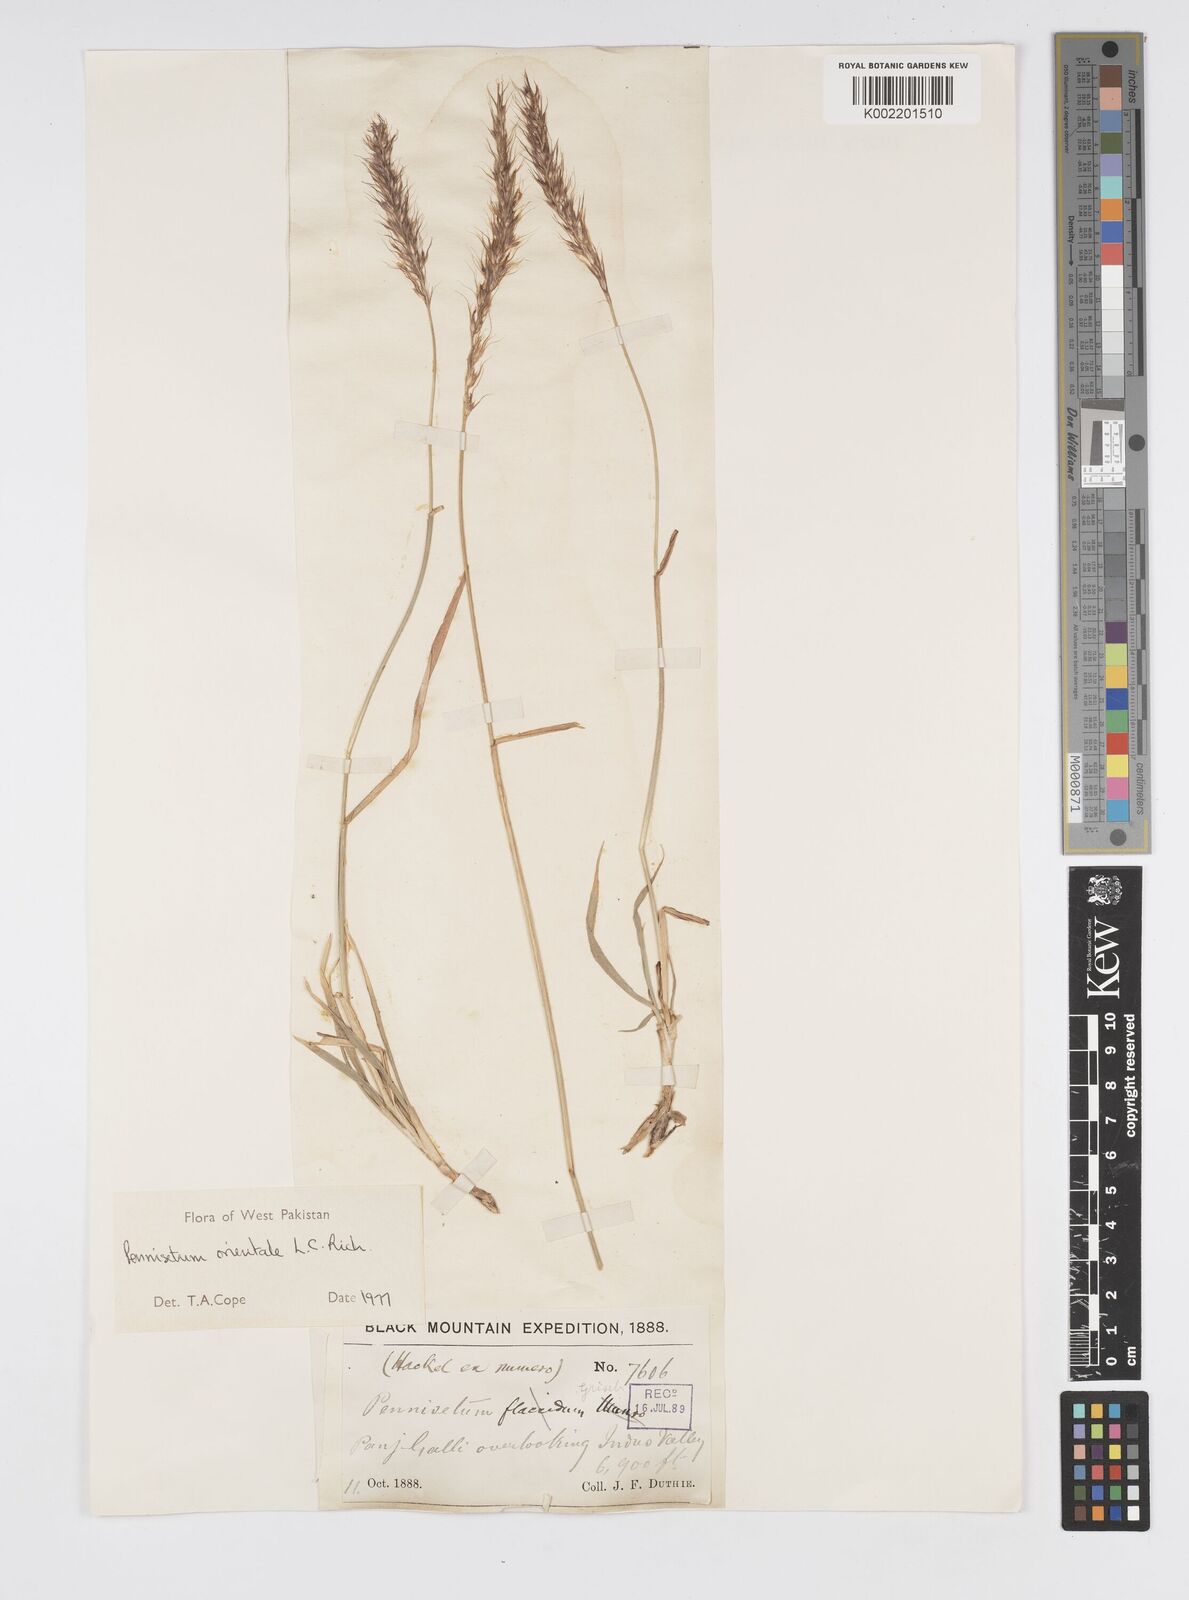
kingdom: Plantae
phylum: Tracheophyta
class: Liliopsida
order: Poales
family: Poaceae
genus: Cenchrus
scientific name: Cenchrus orientalis
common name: Oriental fountain grass
